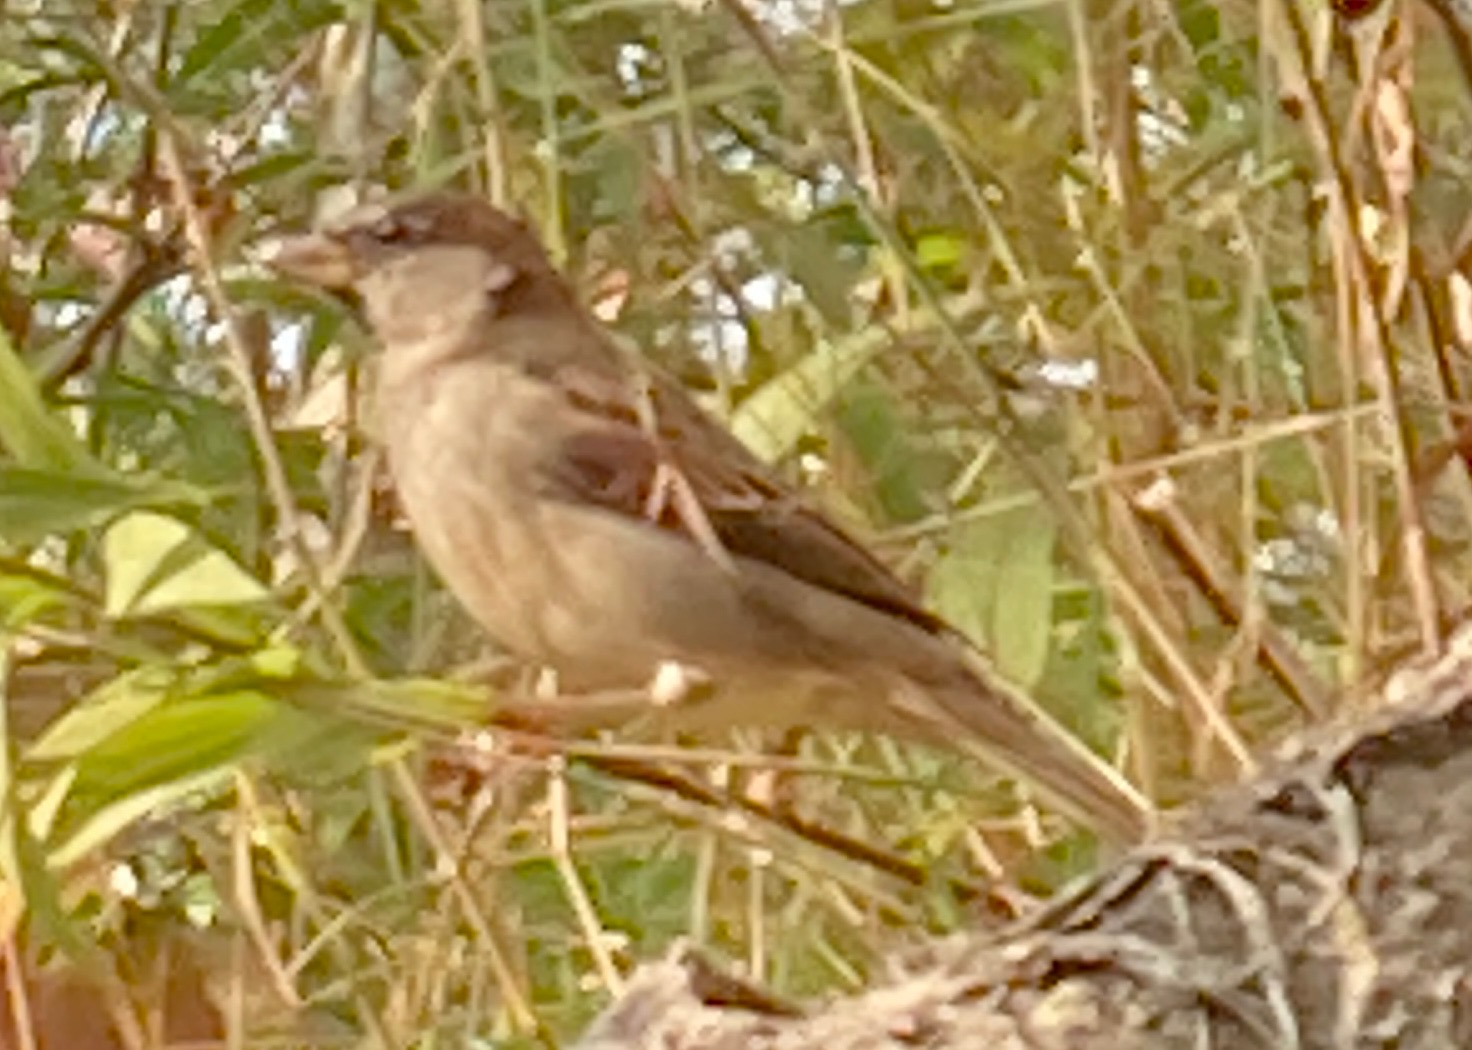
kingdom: Animalia
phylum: Chordata
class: Aves
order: Passeriformes
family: Passeridae
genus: Passer
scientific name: Passer domesticus
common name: Gråspurv
